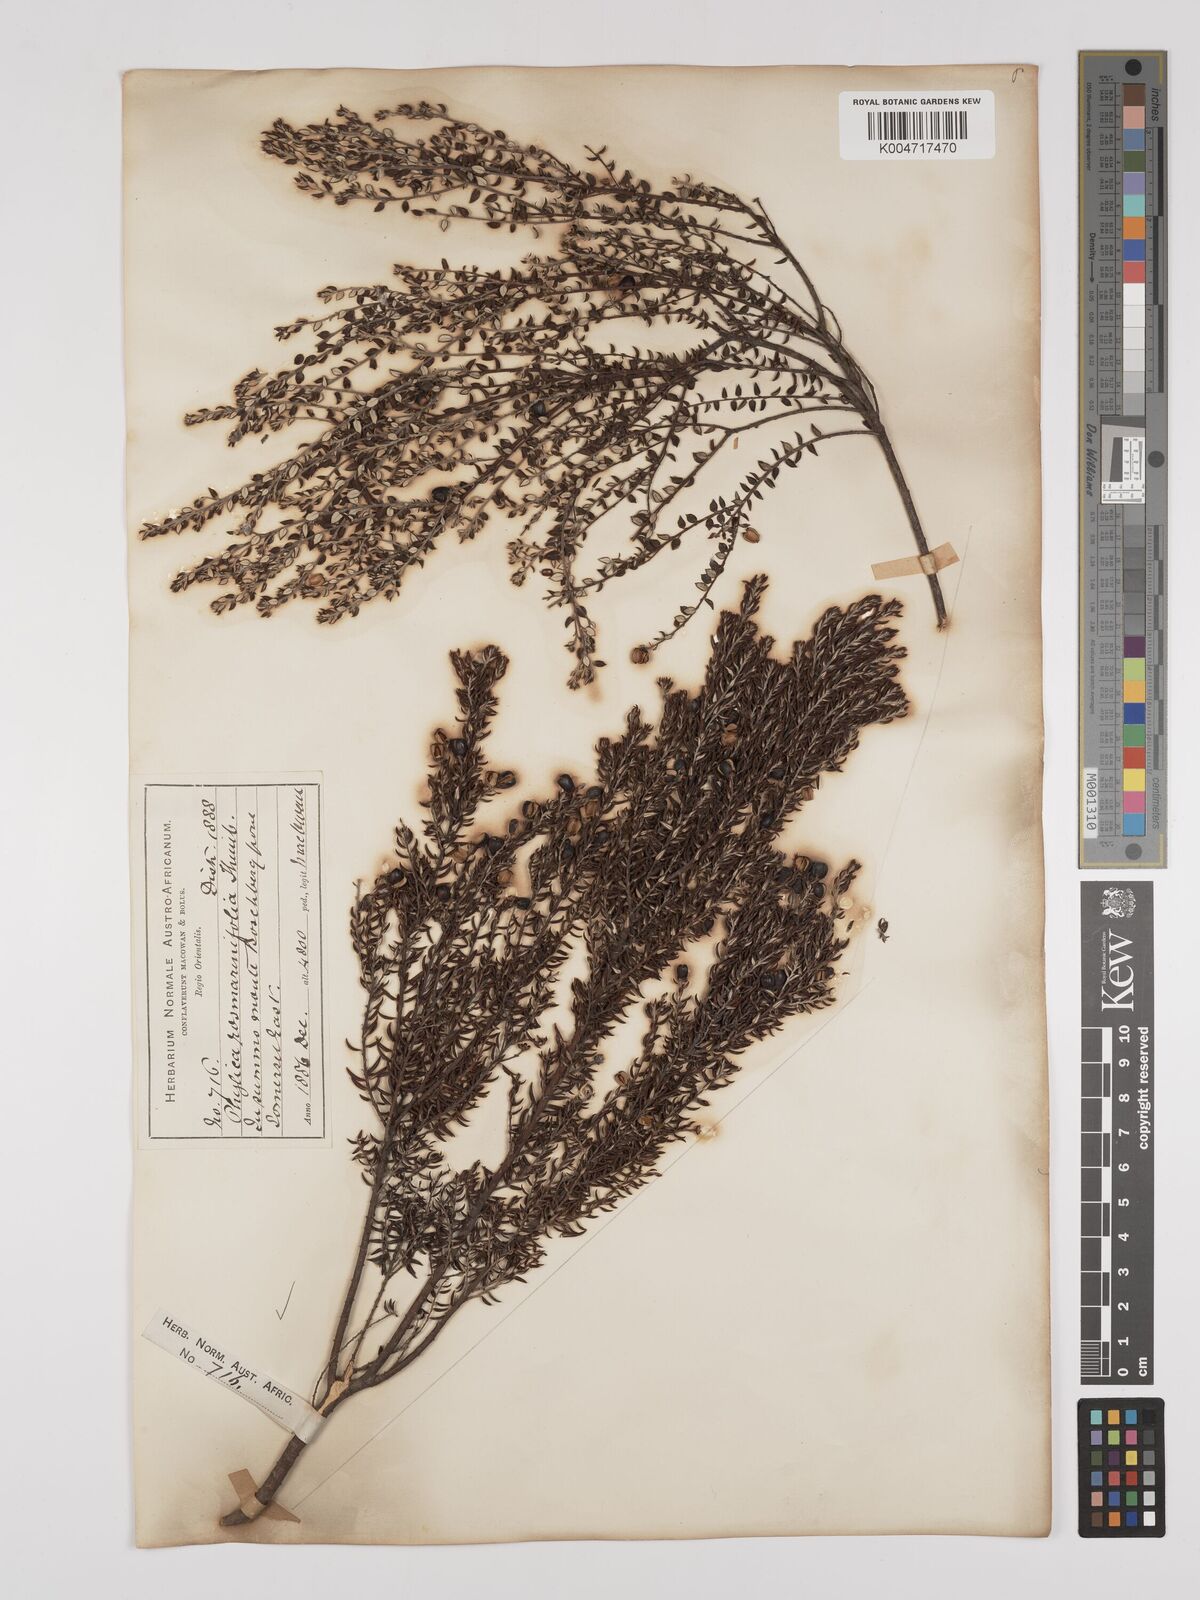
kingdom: Plantae
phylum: Tracheophyta
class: Magnoliopsida
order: Rosales
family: Rhamnaceae
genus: Phylica
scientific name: Phylica paniculata
